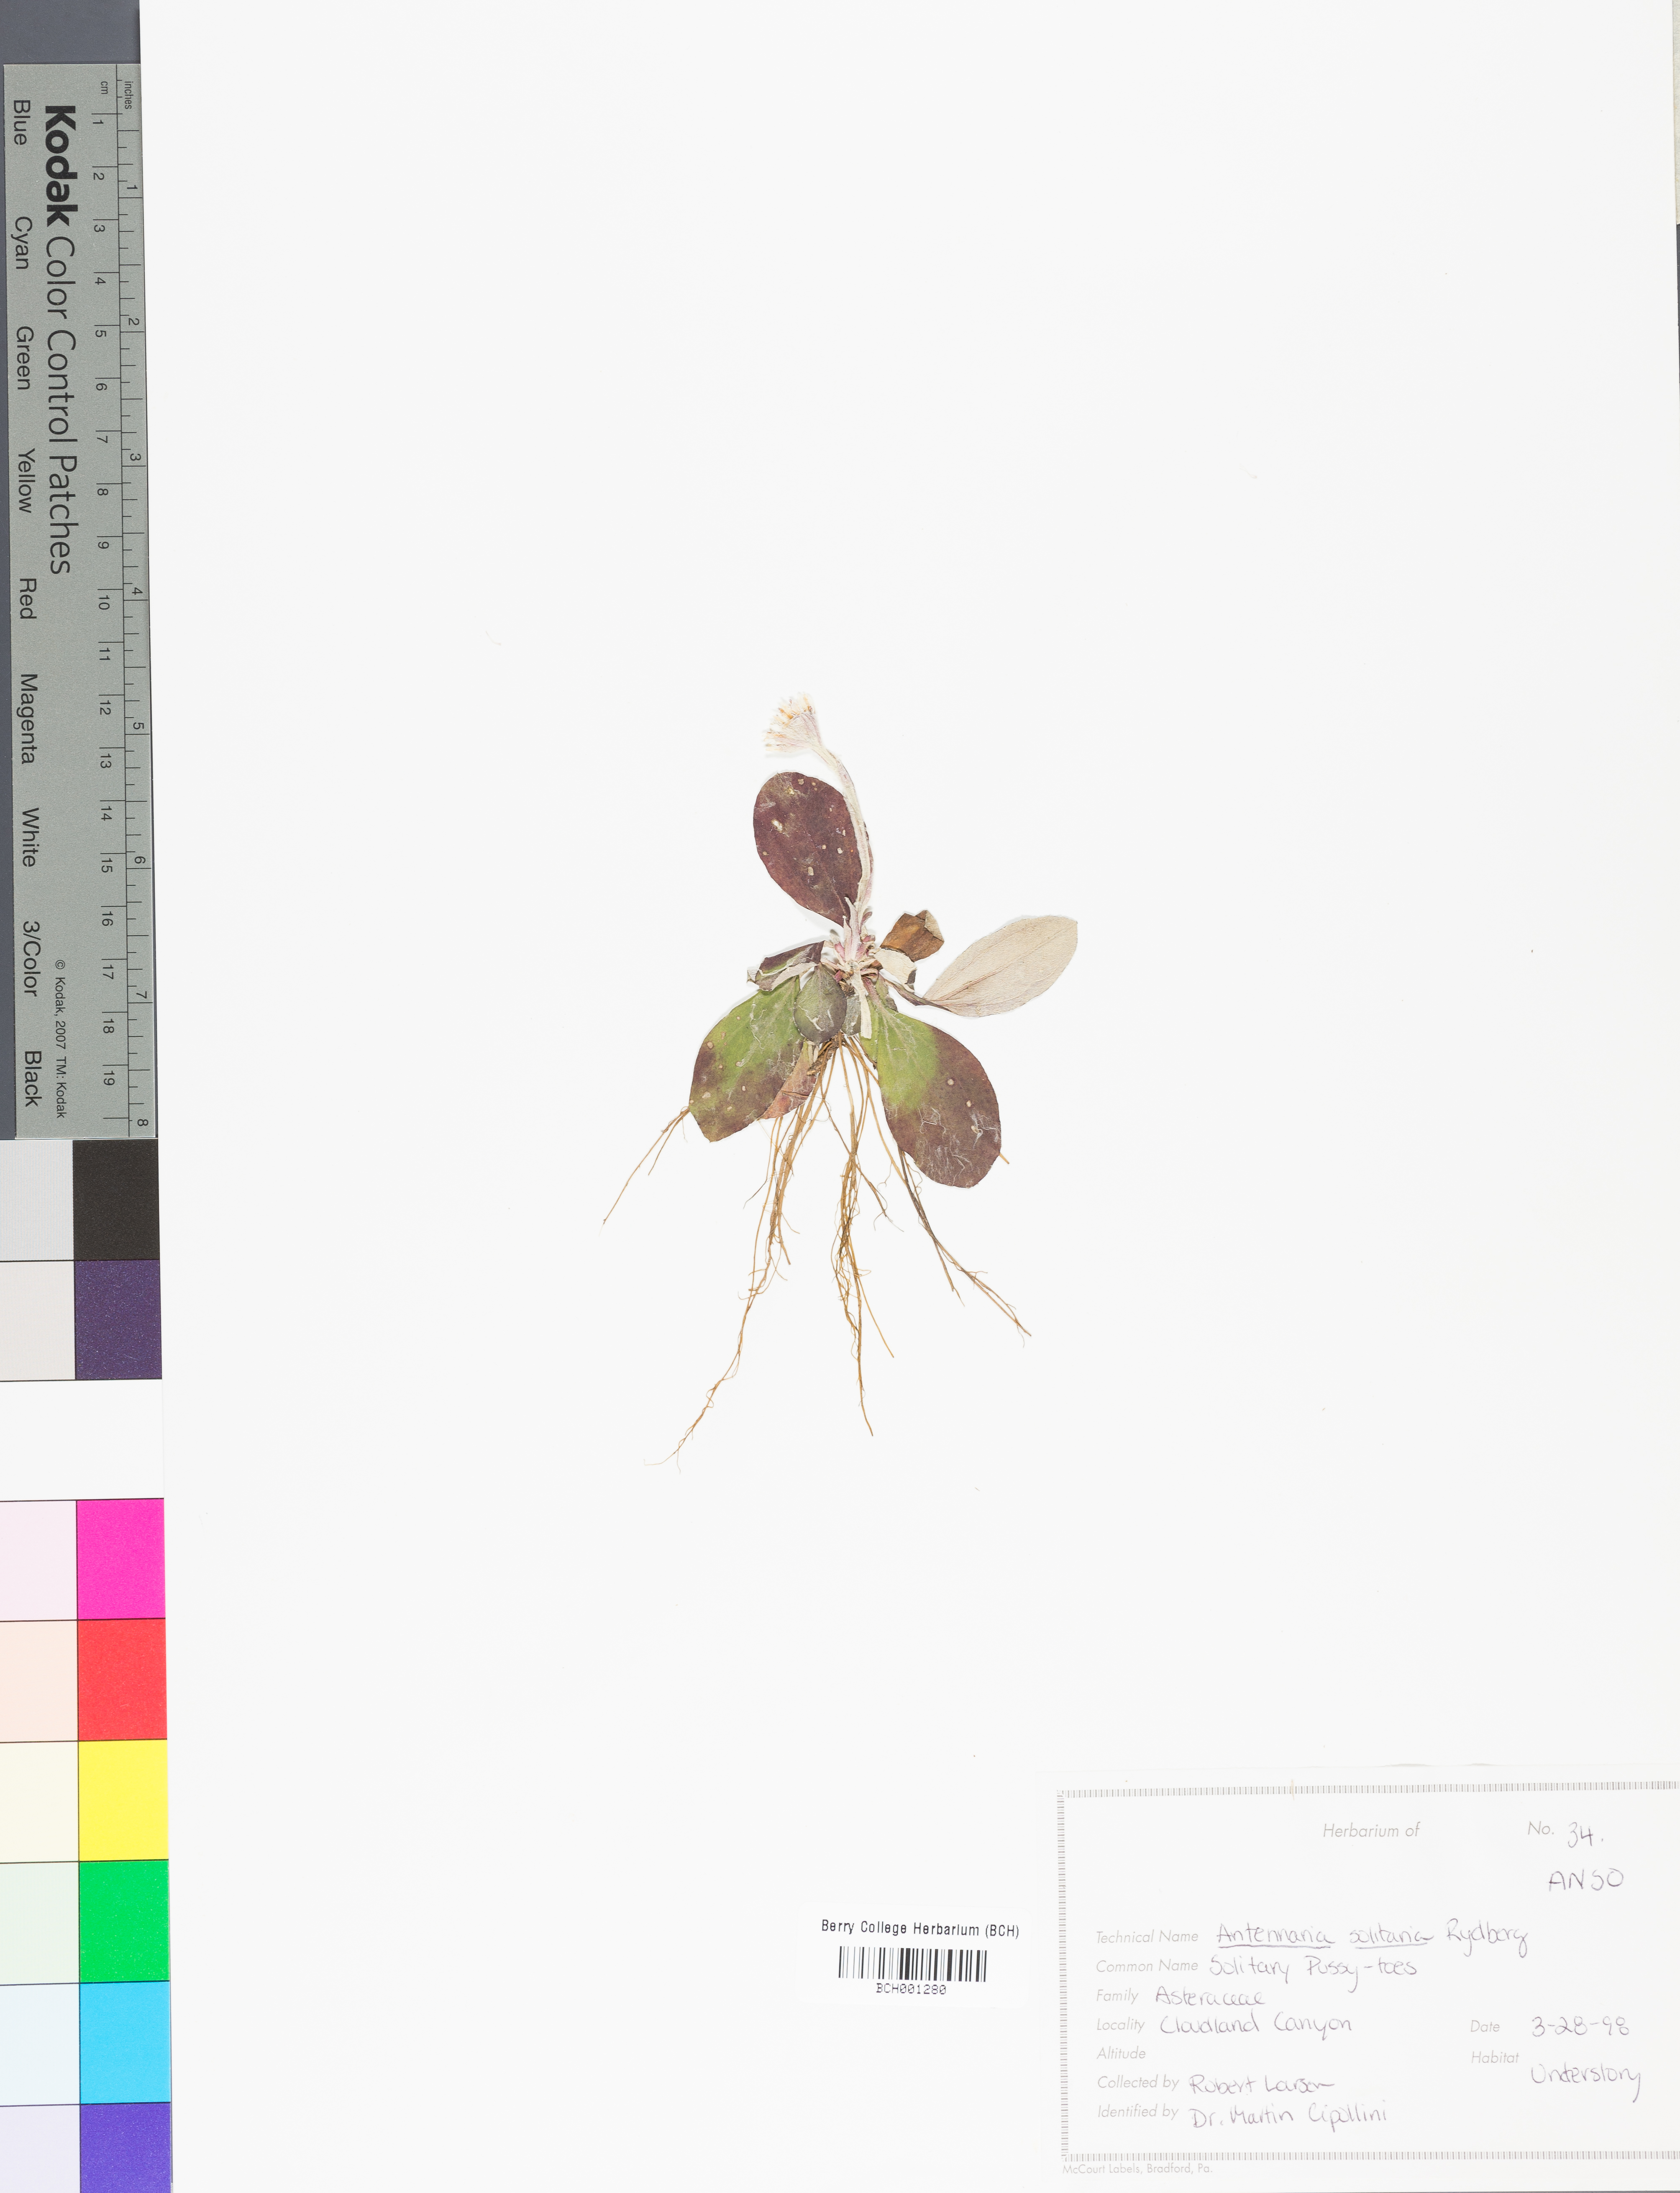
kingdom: Plantae
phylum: Tracheophyta
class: Magnoliopsida
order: Asterales
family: Asteraceae
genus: Pseudognaphalium
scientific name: Pseudognaphalium helleri
